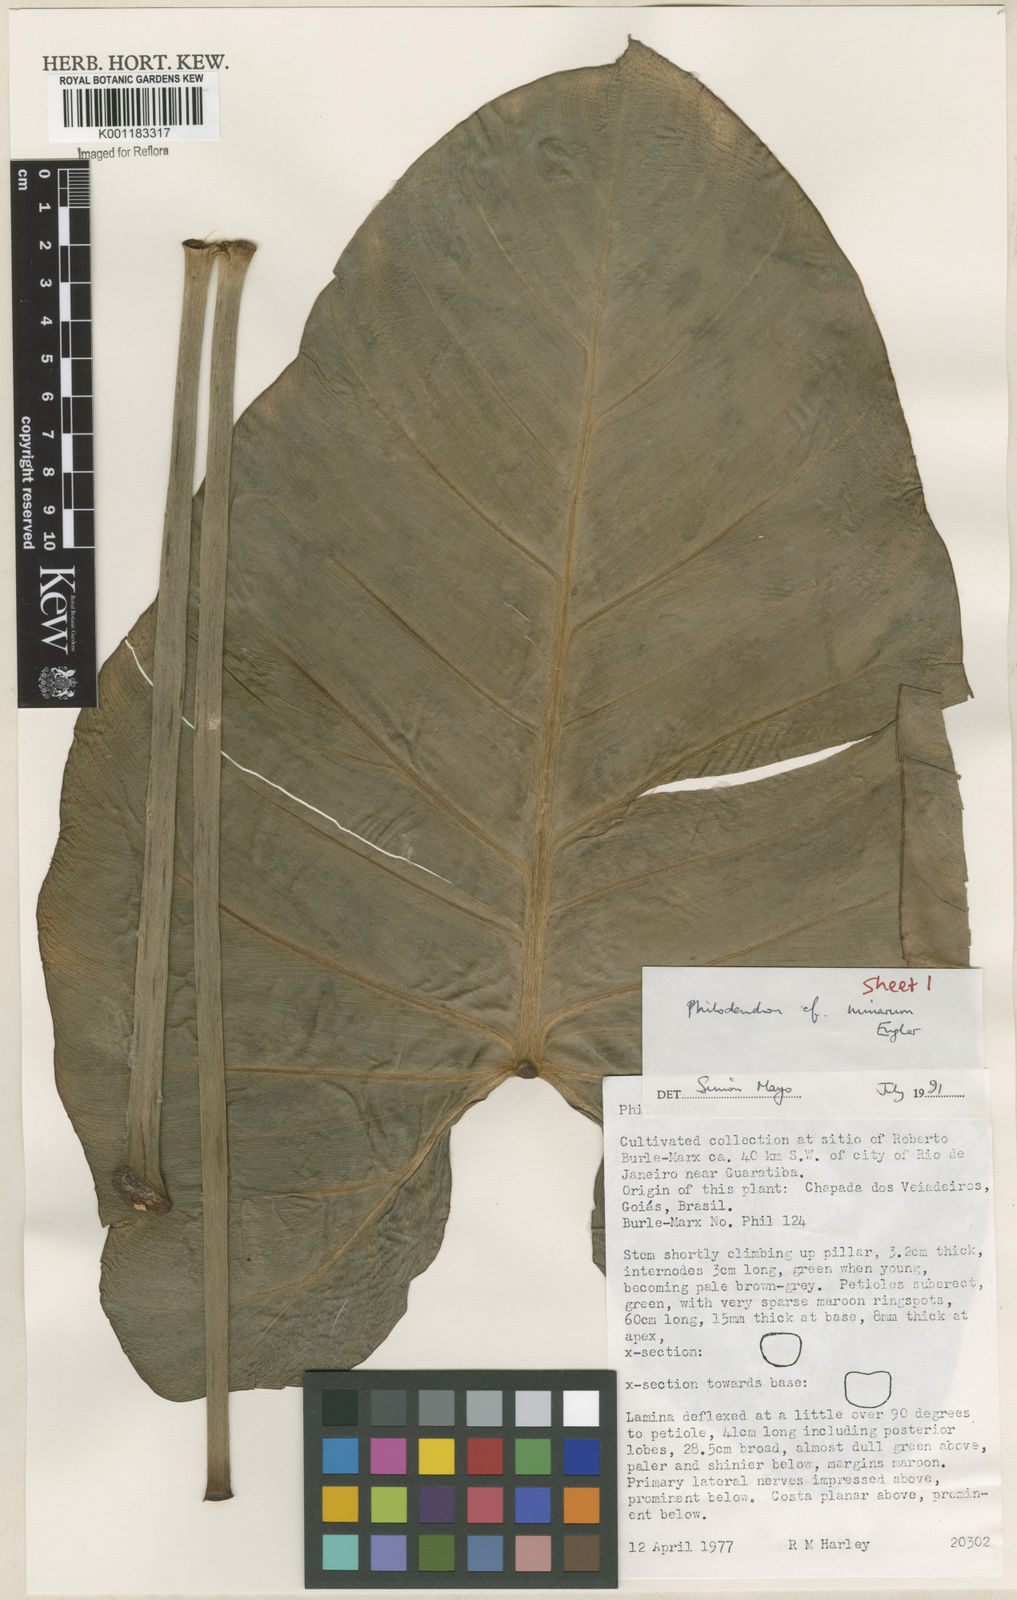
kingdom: Plantae
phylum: Tracheophyta
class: Liliopsida
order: Alismatales
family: Araceae
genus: Philodendron
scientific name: Philodendron minarum
